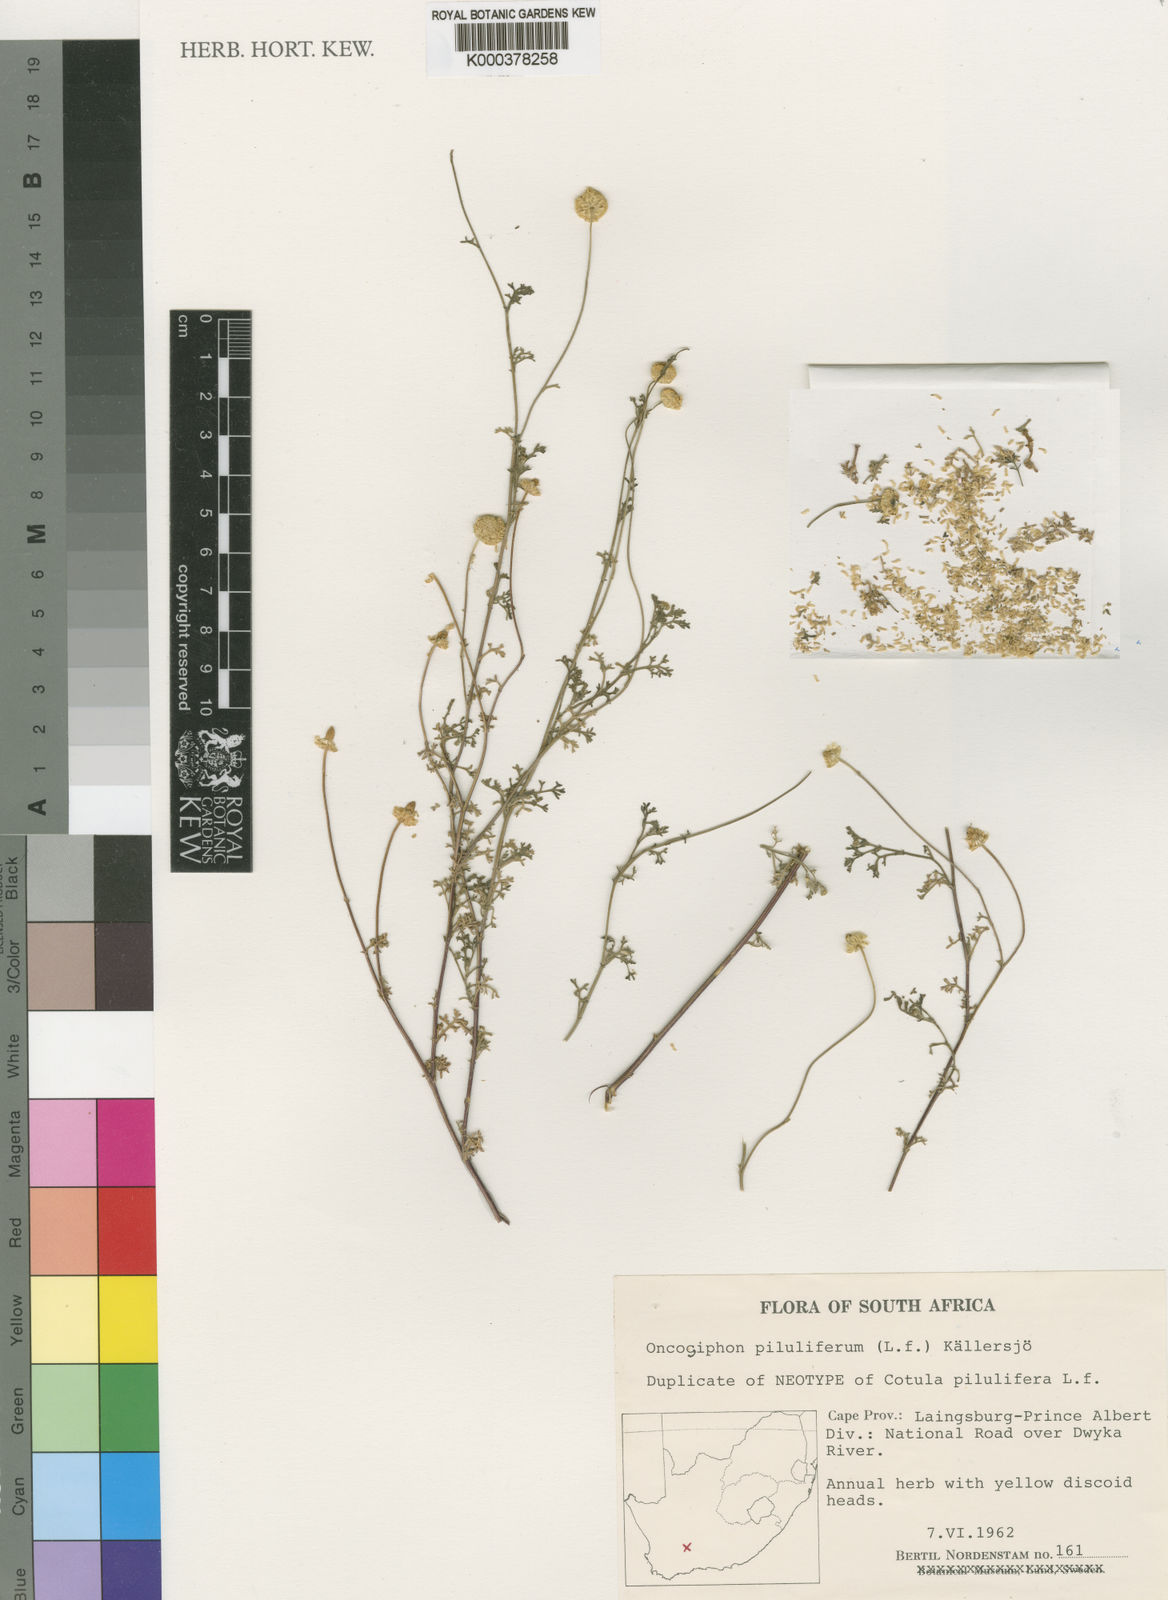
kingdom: Plantae
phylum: Tracheophyta
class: Magnoliopsida
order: Asterales
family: Asteraceae
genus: Oncosiphon
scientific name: Oncosiphon
